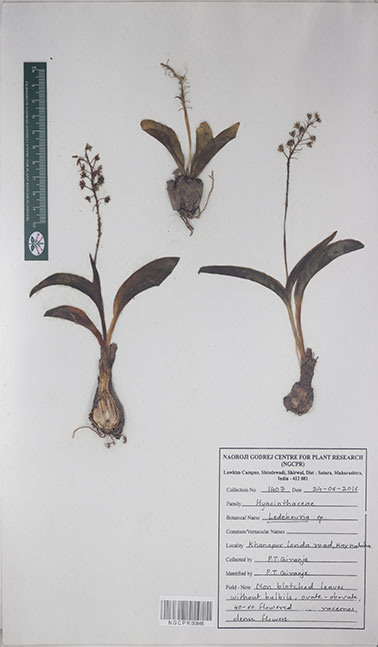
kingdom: Plantae
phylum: Tracheophyta
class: Liliopsida
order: Asparagales
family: Asparagaceae
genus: Ledebouria
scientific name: Ledebouria
